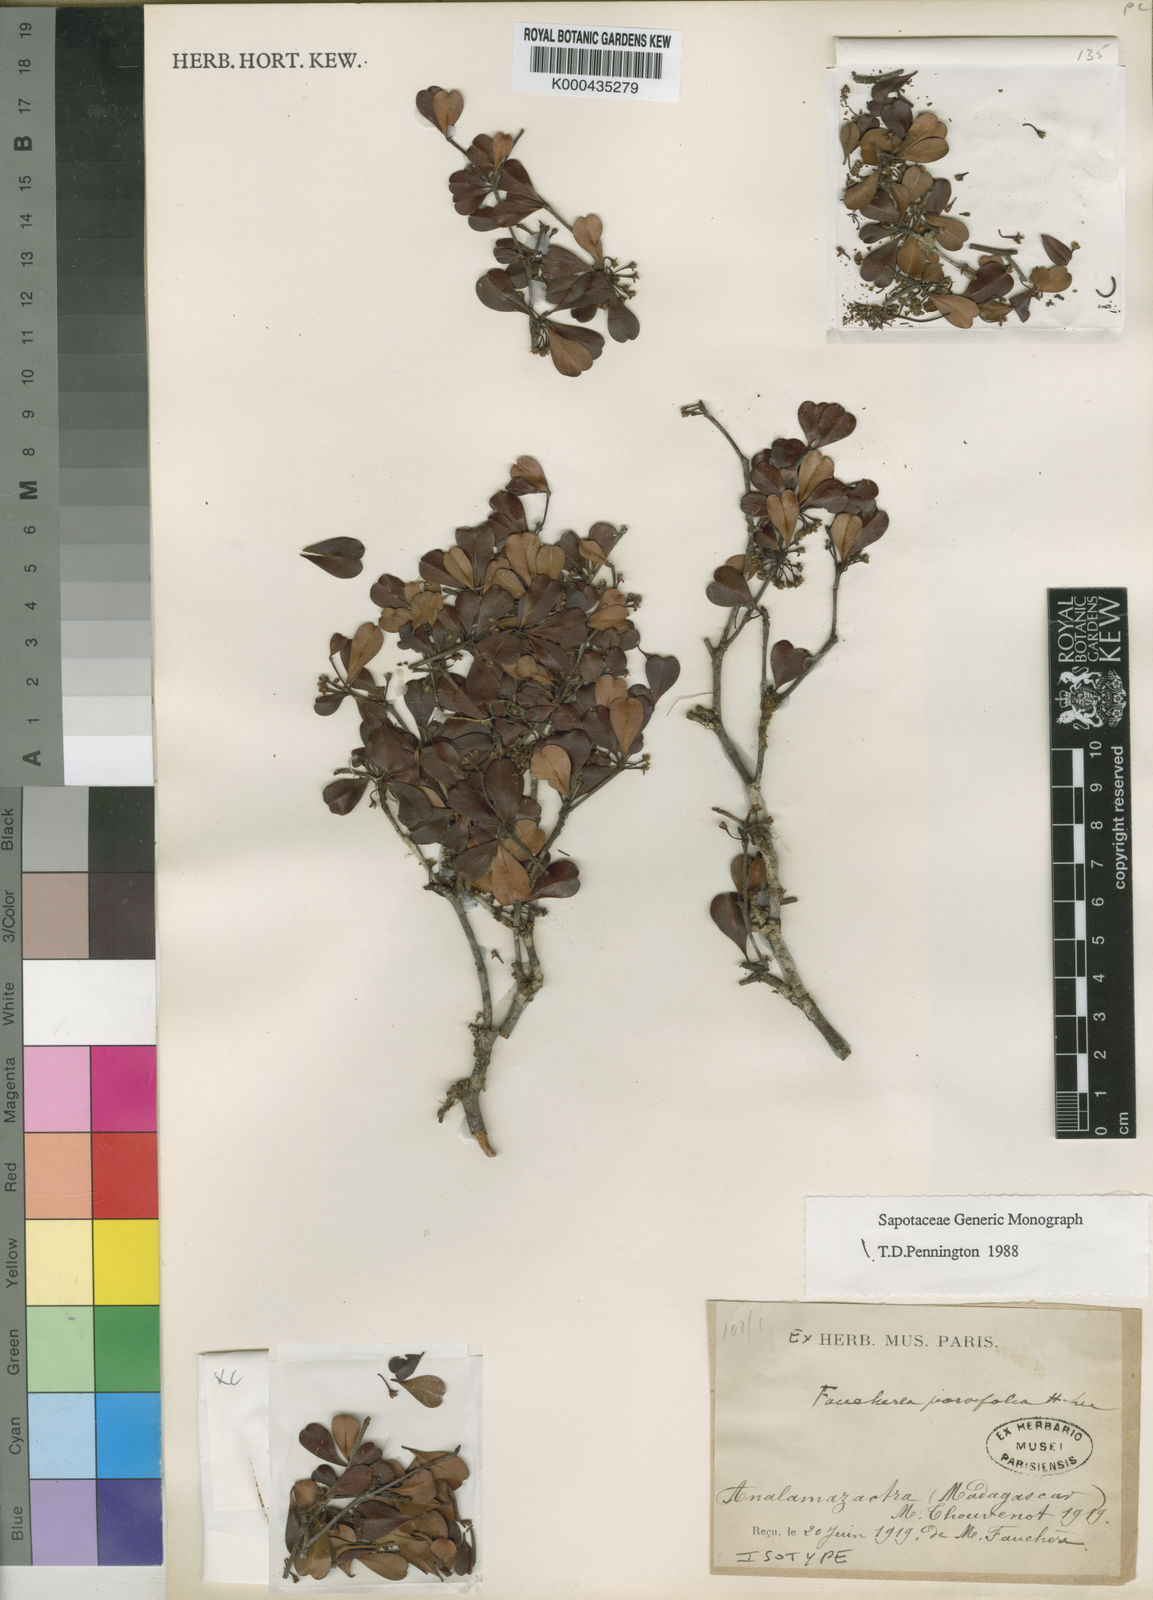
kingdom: Plantae
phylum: Tracheophyta
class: Magnoliopsida
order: Ericales
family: Sapotaceae
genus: Faucherea
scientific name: Faucherea parvifolia
